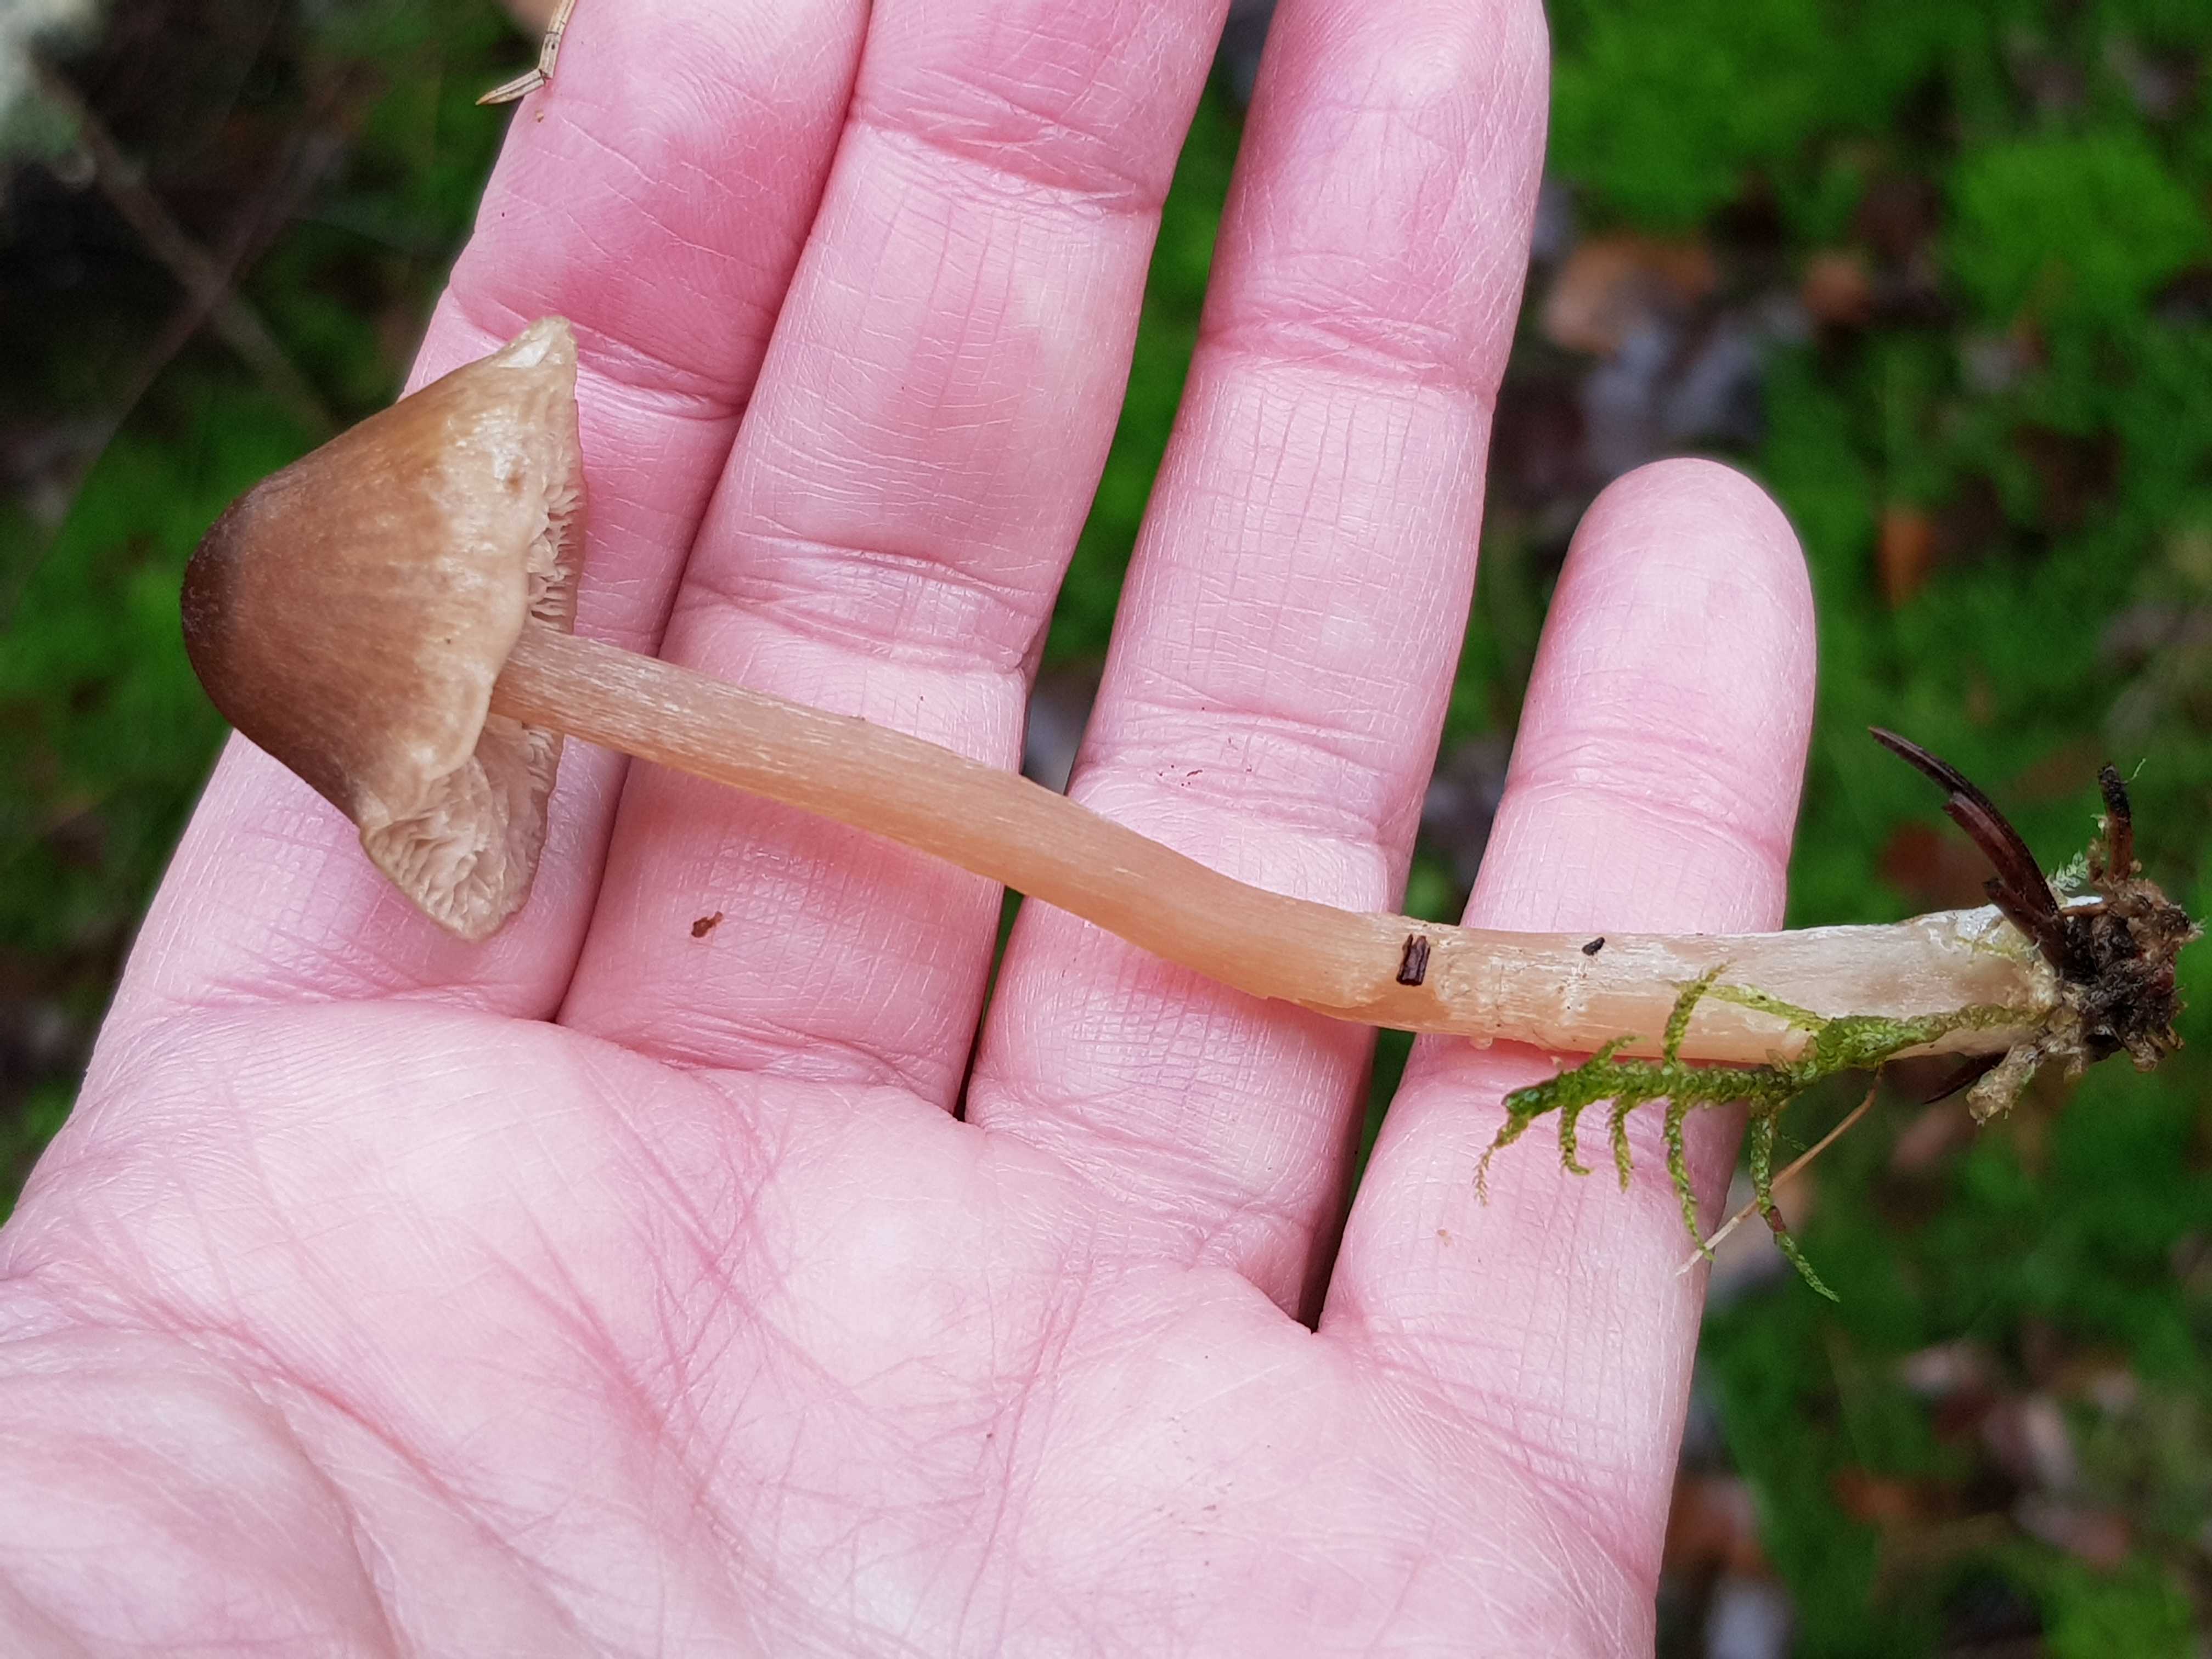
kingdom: Fungi
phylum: Basidiomycota
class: Agaricomycetes
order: Agaricales
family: Entolomataceae
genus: Entoloma
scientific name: Entoloma cetratum
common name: voks-rødblad
